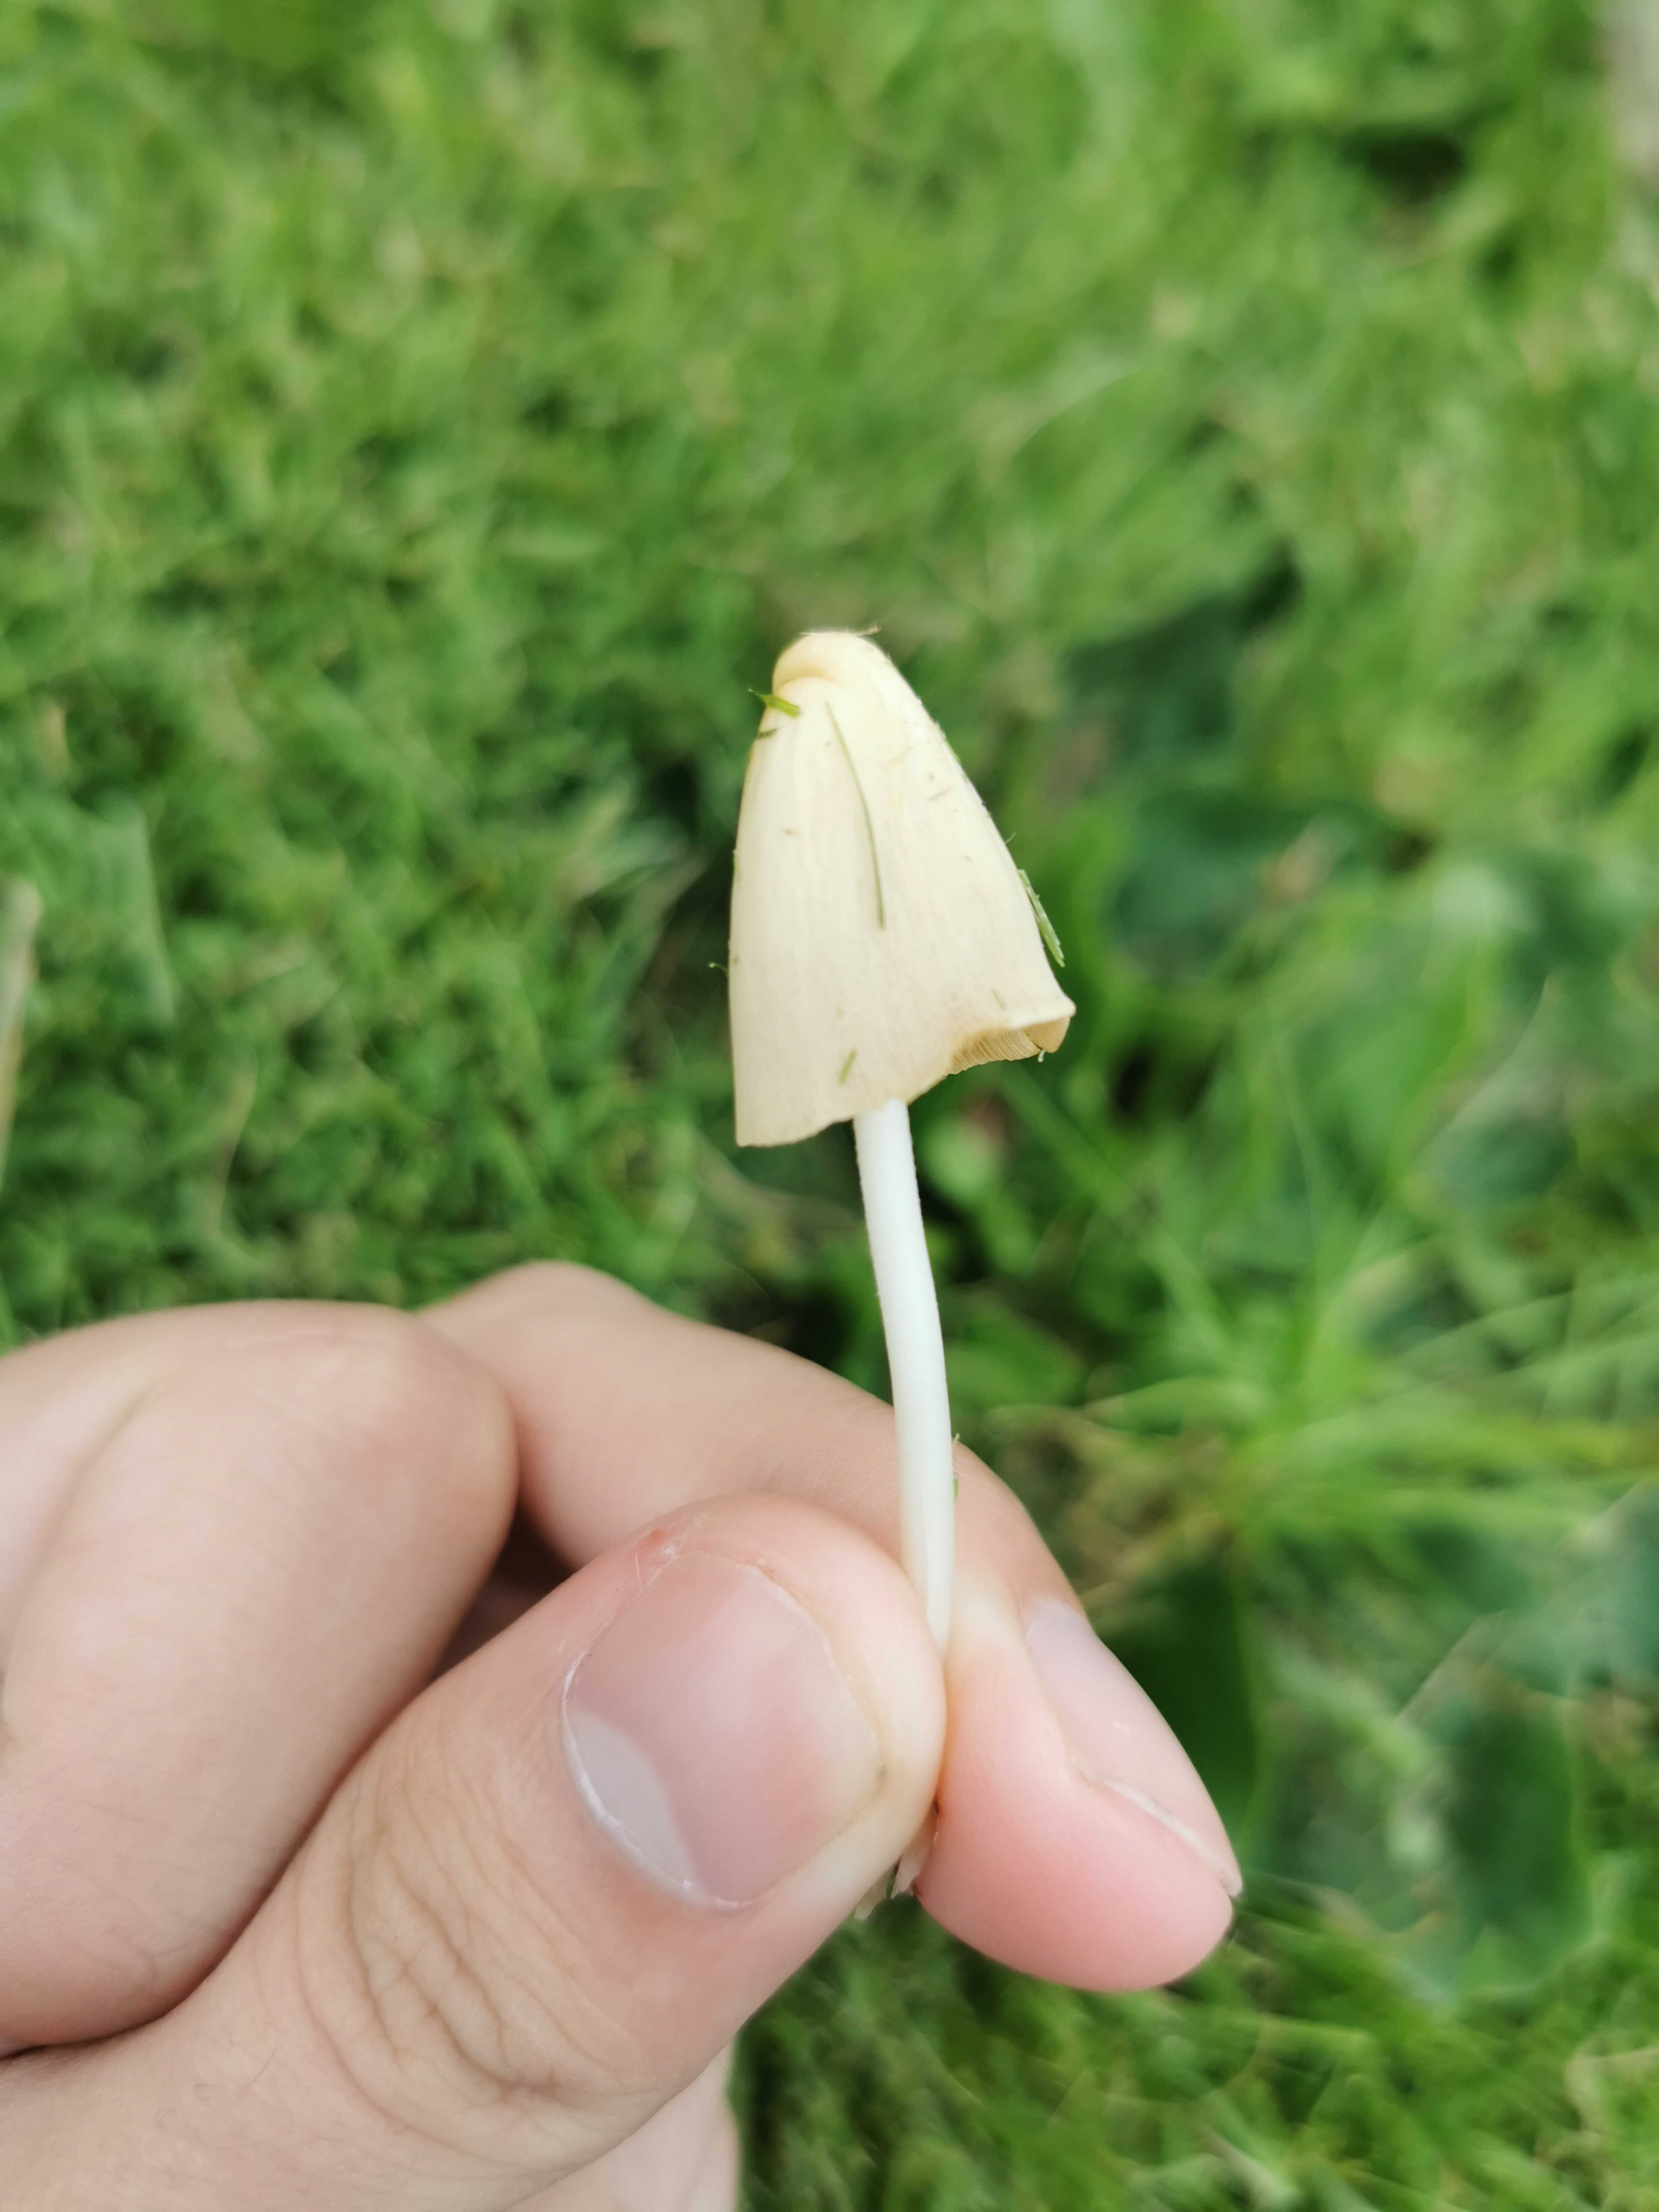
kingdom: Fungi
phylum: Basidiomycota
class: Agaricomycetes
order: Agaricales
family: Bolbitiaceae
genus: Conocybe
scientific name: Conocybe apala
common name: mælkehvid keglehat
